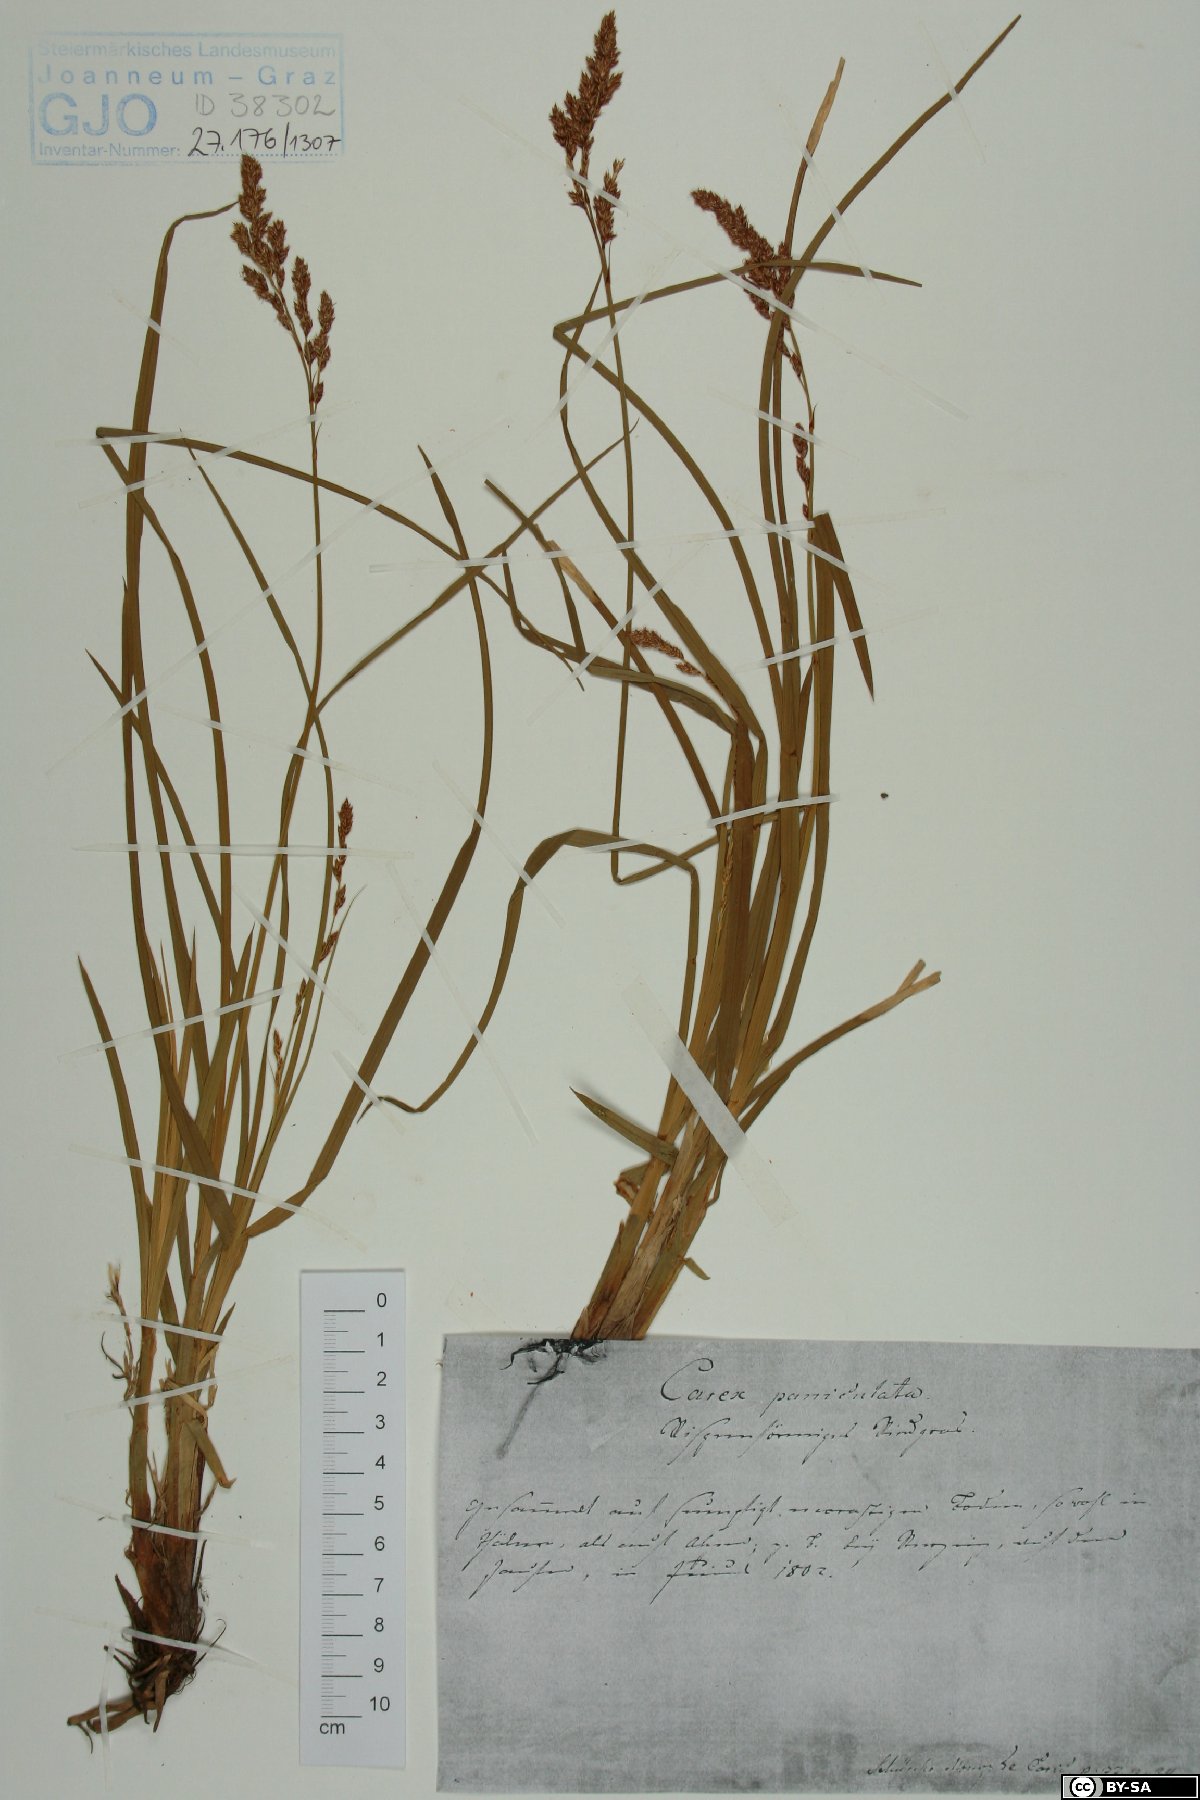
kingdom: Plantae
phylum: Tracheophyta
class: Liliopsida
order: Poales
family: Cyperaceae
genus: Carex
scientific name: Carex paniculata
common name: Greater tussock-sedge
